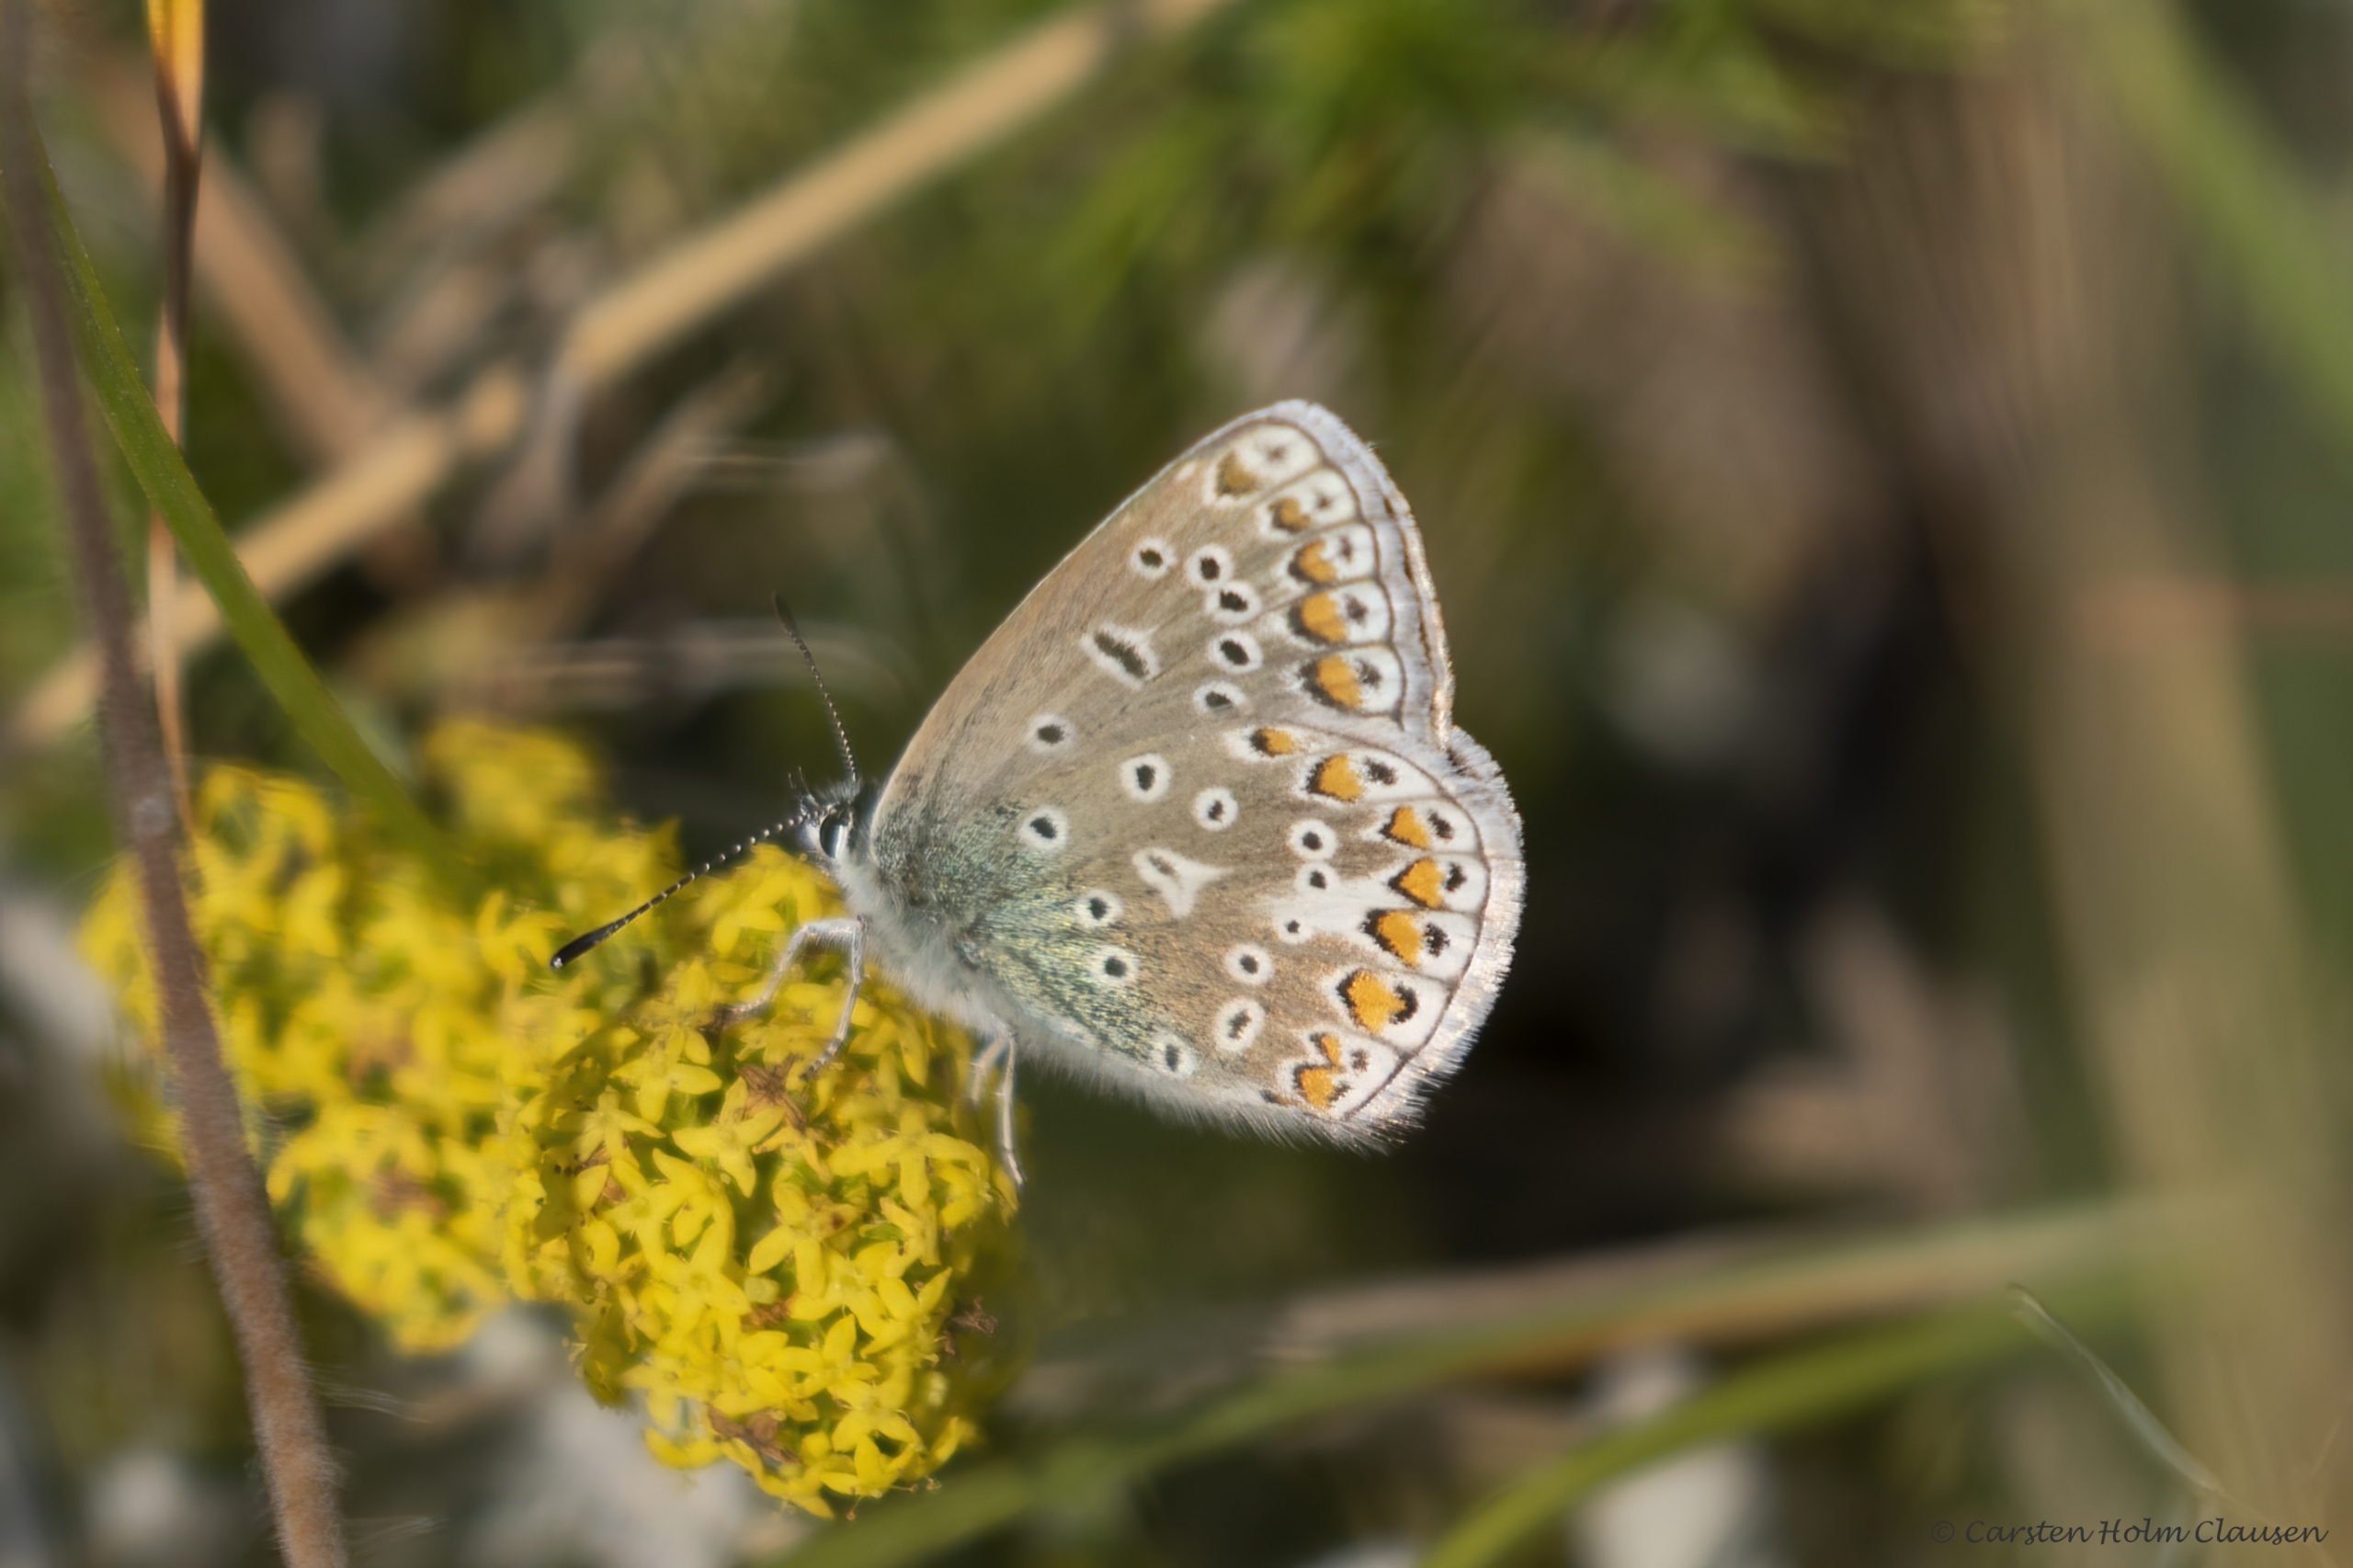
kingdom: Animalia
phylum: Arthropoda
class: Insecta
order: Lepidoptera
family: Lycaenidae
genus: Polyommatus
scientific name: Polyommatus icarus
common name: Almindelig blåfugl
